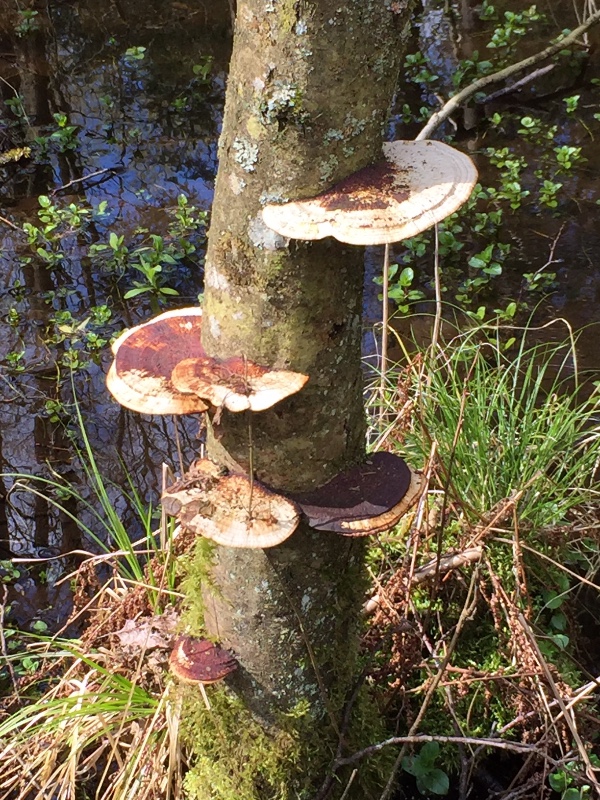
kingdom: Fungi
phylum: Basidiomycota
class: Agaricomycetes
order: Polyporales
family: Polyporaceae
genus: Daedaleopsis
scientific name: Daedaleopsis confragosa
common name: rødmende læderporesvamp
